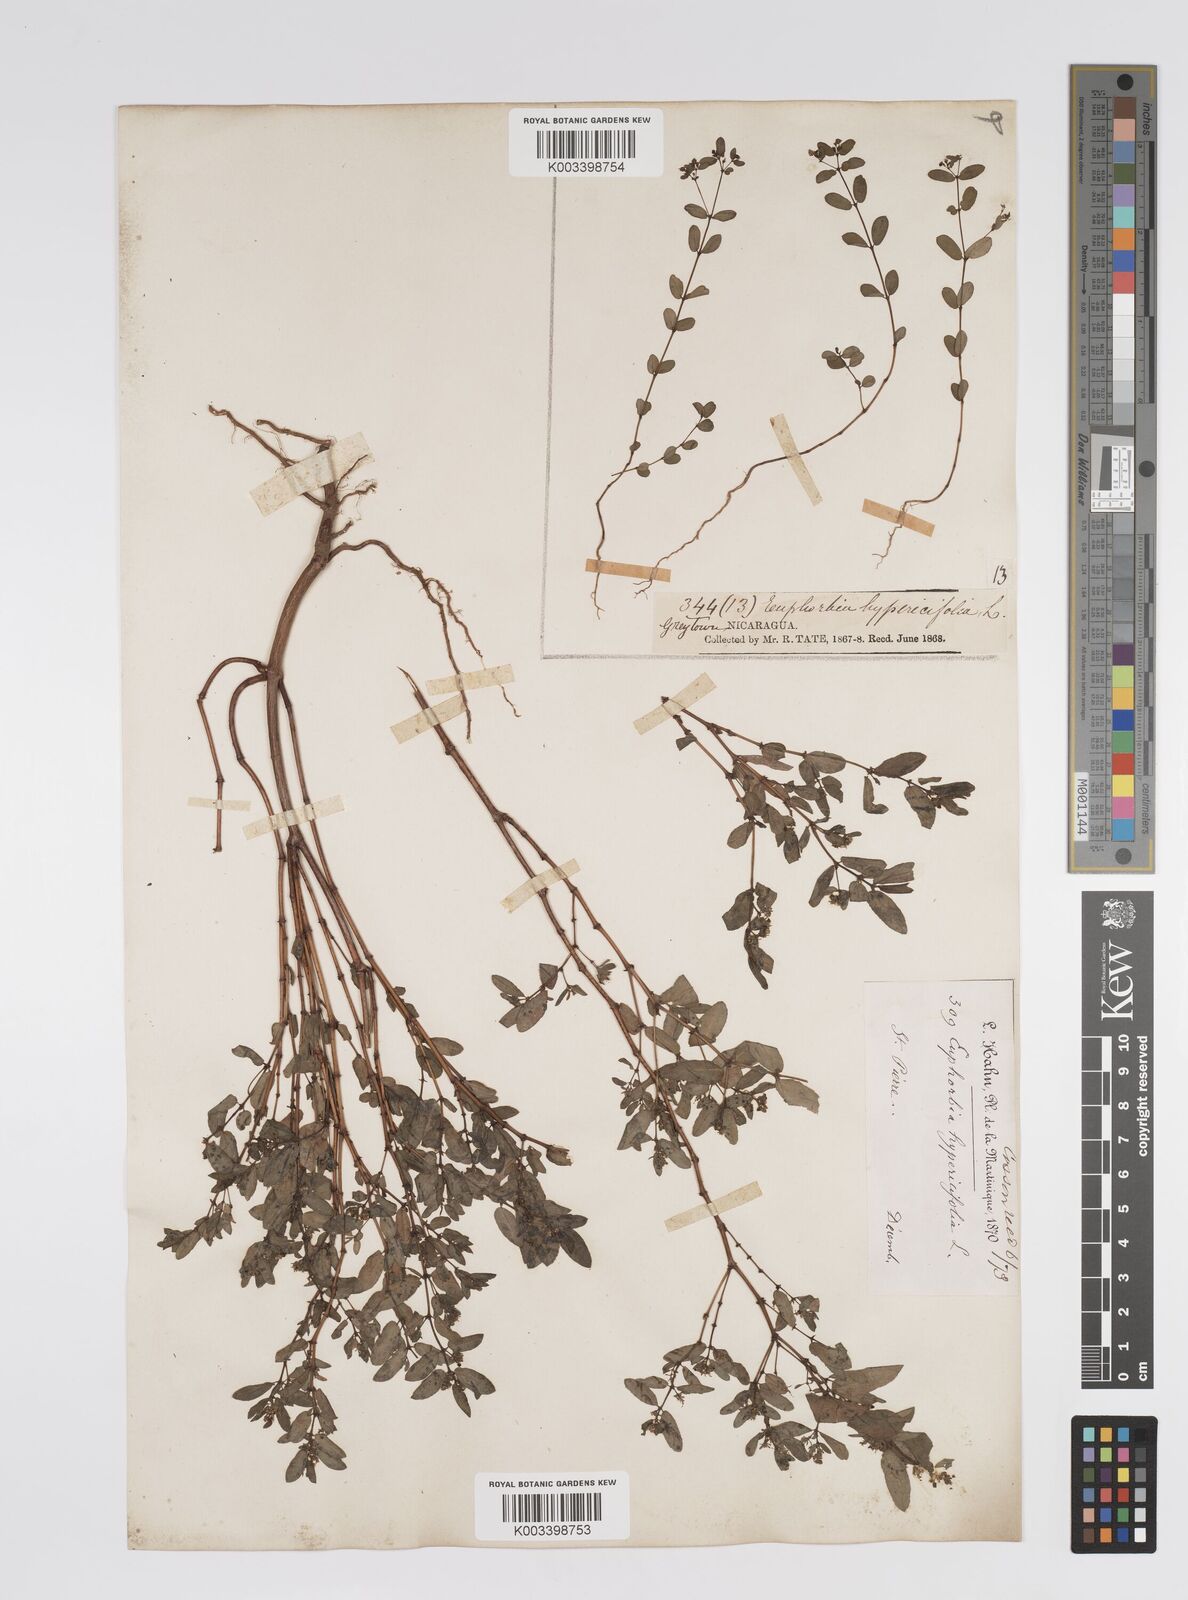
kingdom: Plantae
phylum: Tracheophyta
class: Magnoliopsida
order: Malpighiales
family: Euphorbiaceae
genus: Euphorbia
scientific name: Euphorbia
